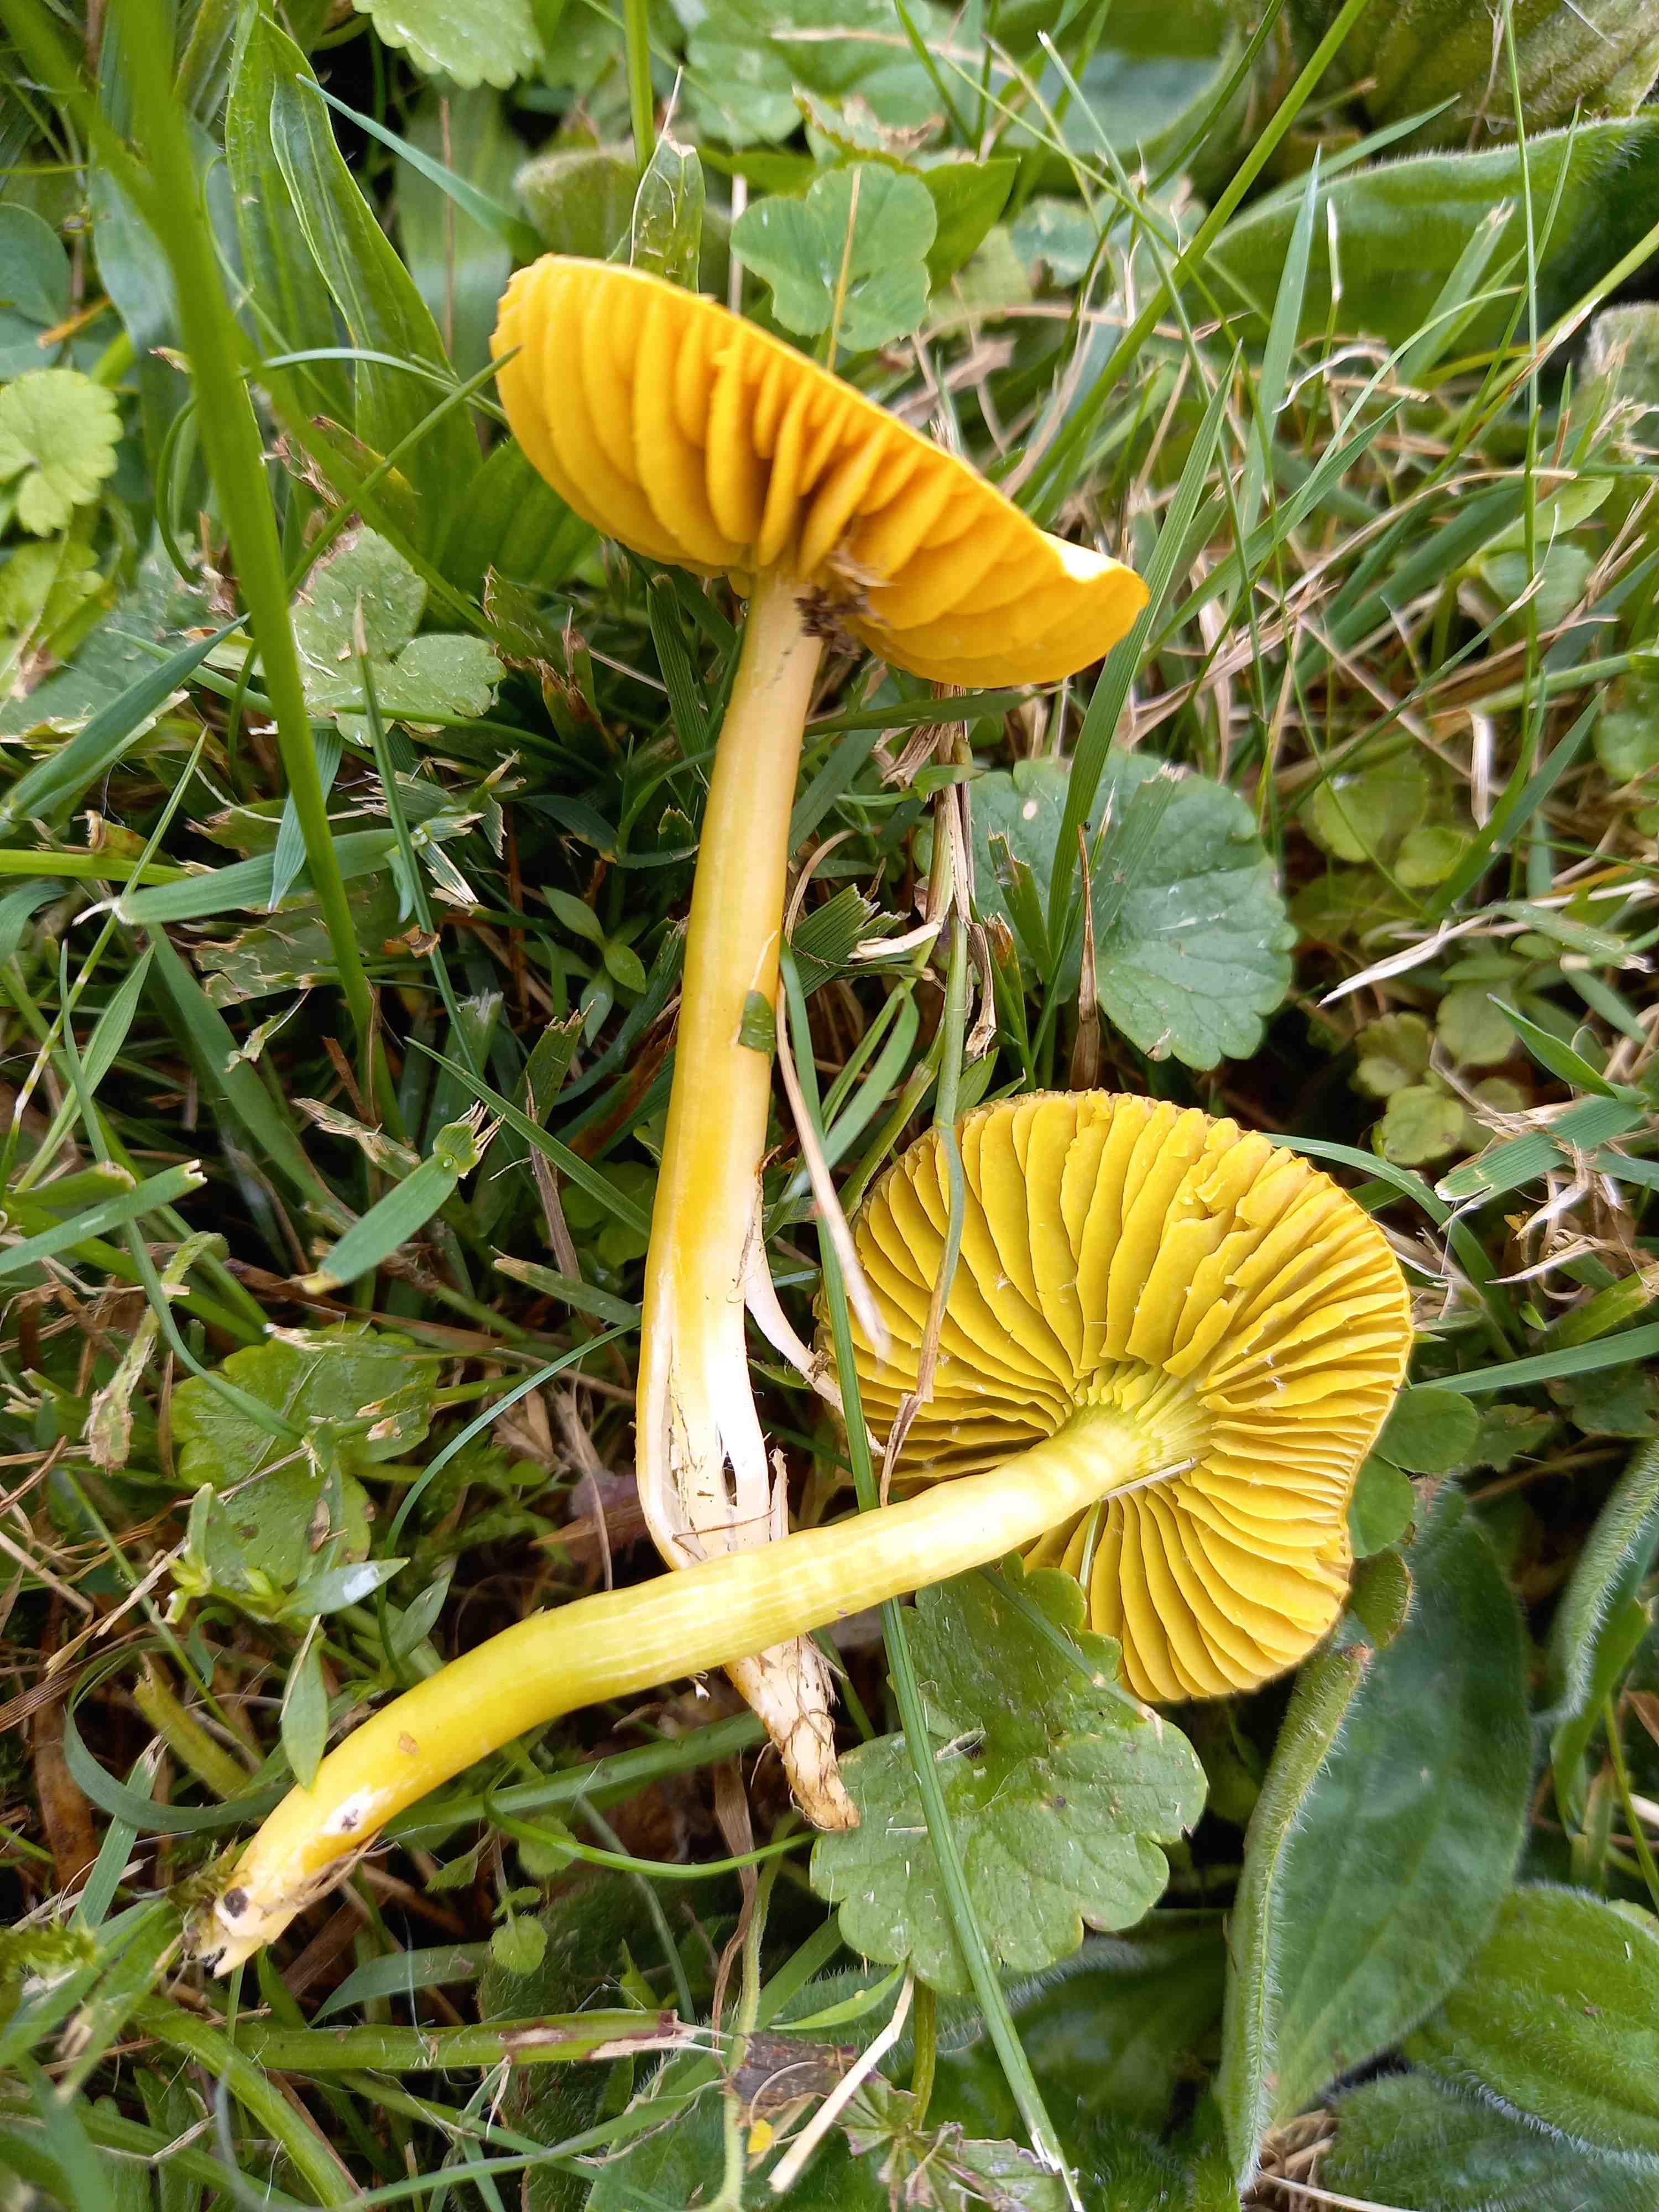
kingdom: Fungi
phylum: Basidiomycota
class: Agaricomycetes
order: Agaricales
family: Hygrophoraceae
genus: Gliophorus
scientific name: Gliophorus psittacinus
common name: papegøje-vokshat
